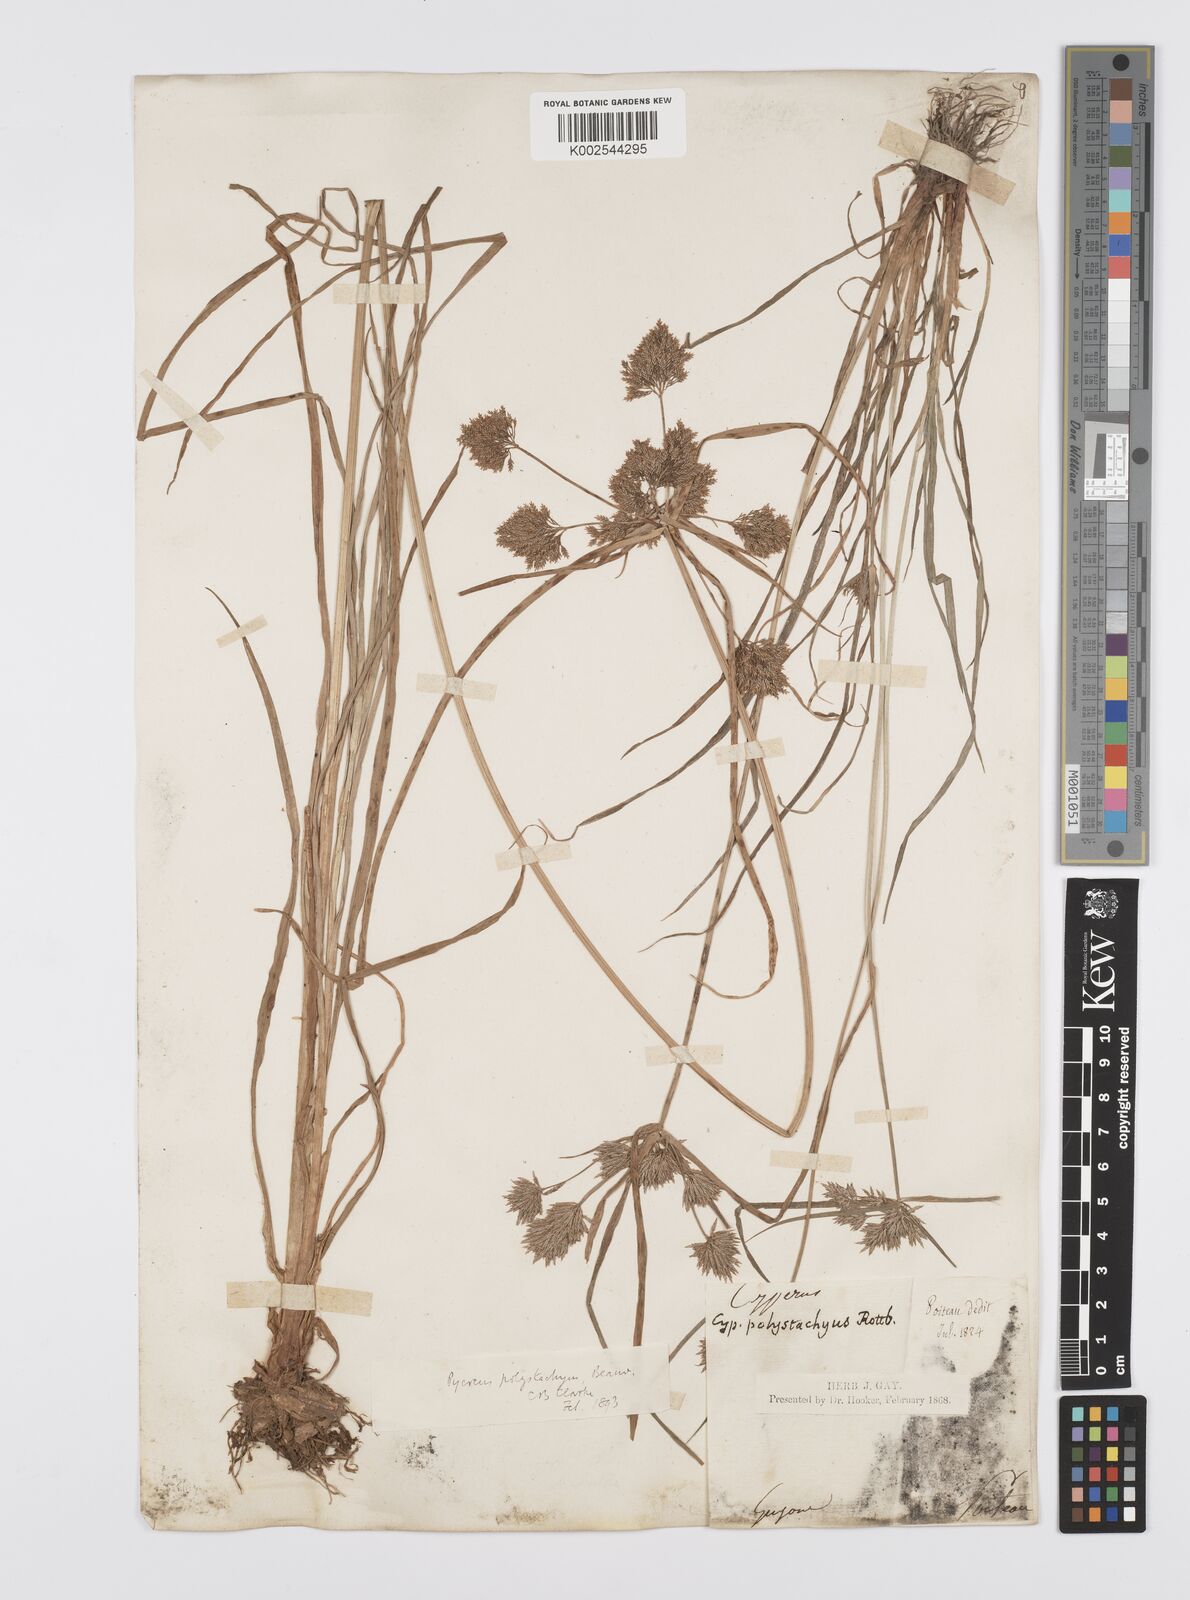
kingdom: Plantae
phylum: Tracheophyta
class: Liliopsida
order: Poales
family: Cyperaceae
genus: Cyperus
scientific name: Cyperus polystachyos
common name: Bunchy flat sedge
